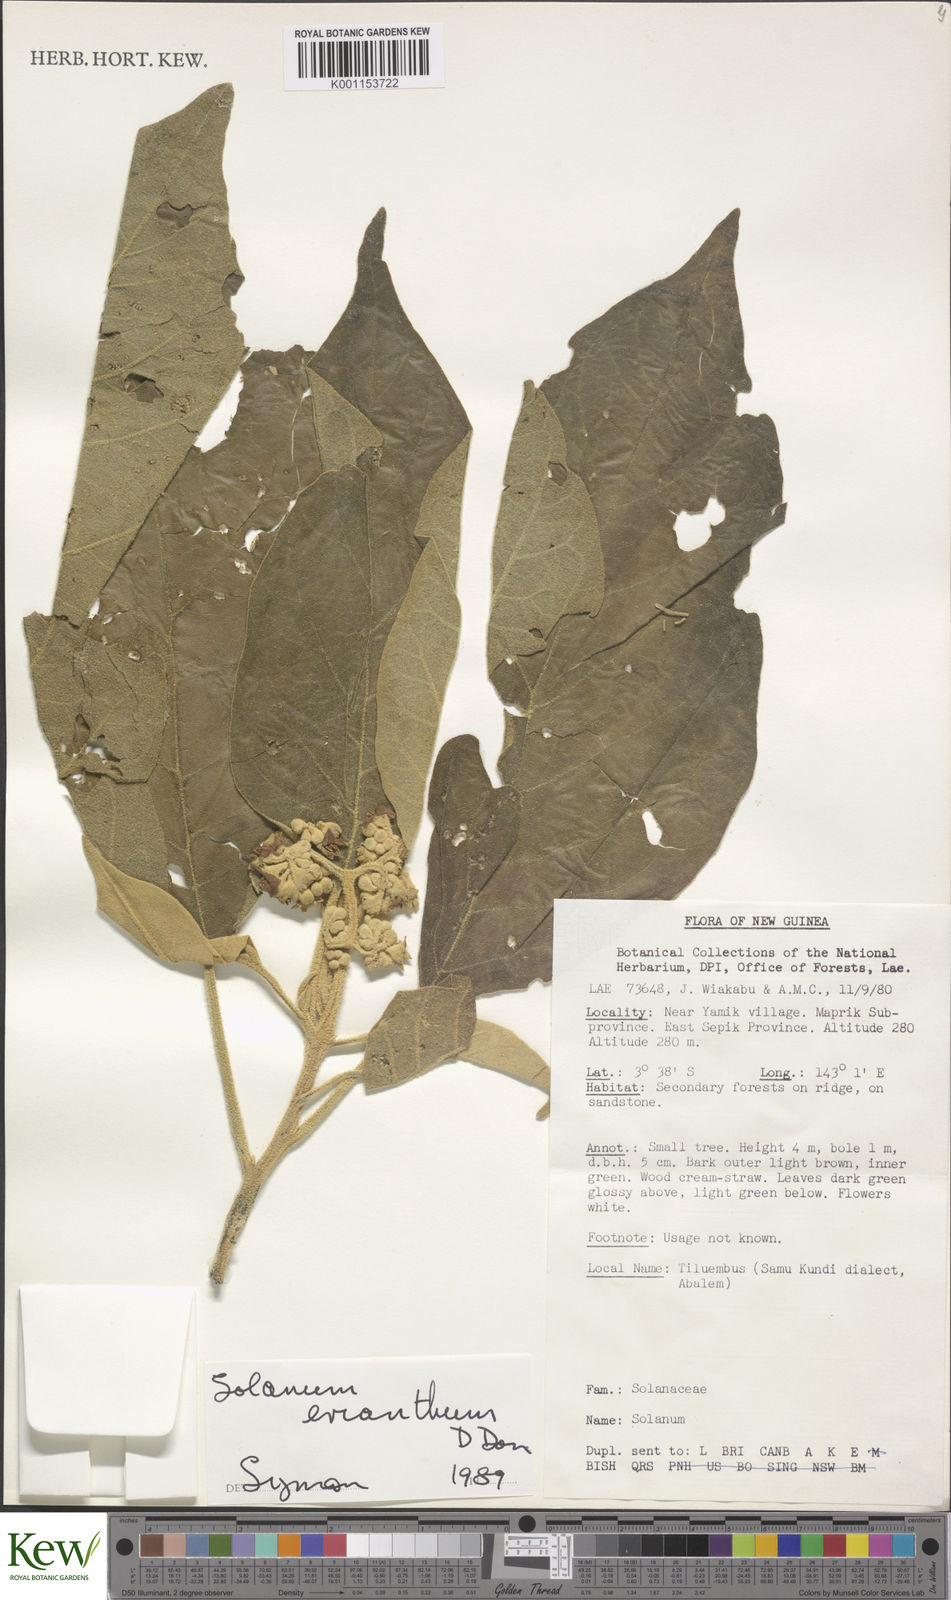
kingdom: Plantae
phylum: Tracheophyta
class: Magnoliopsida
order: Solanales
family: Solanaceae
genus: Solanum
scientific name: Solanum erianthum
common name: Tobacco-tree
